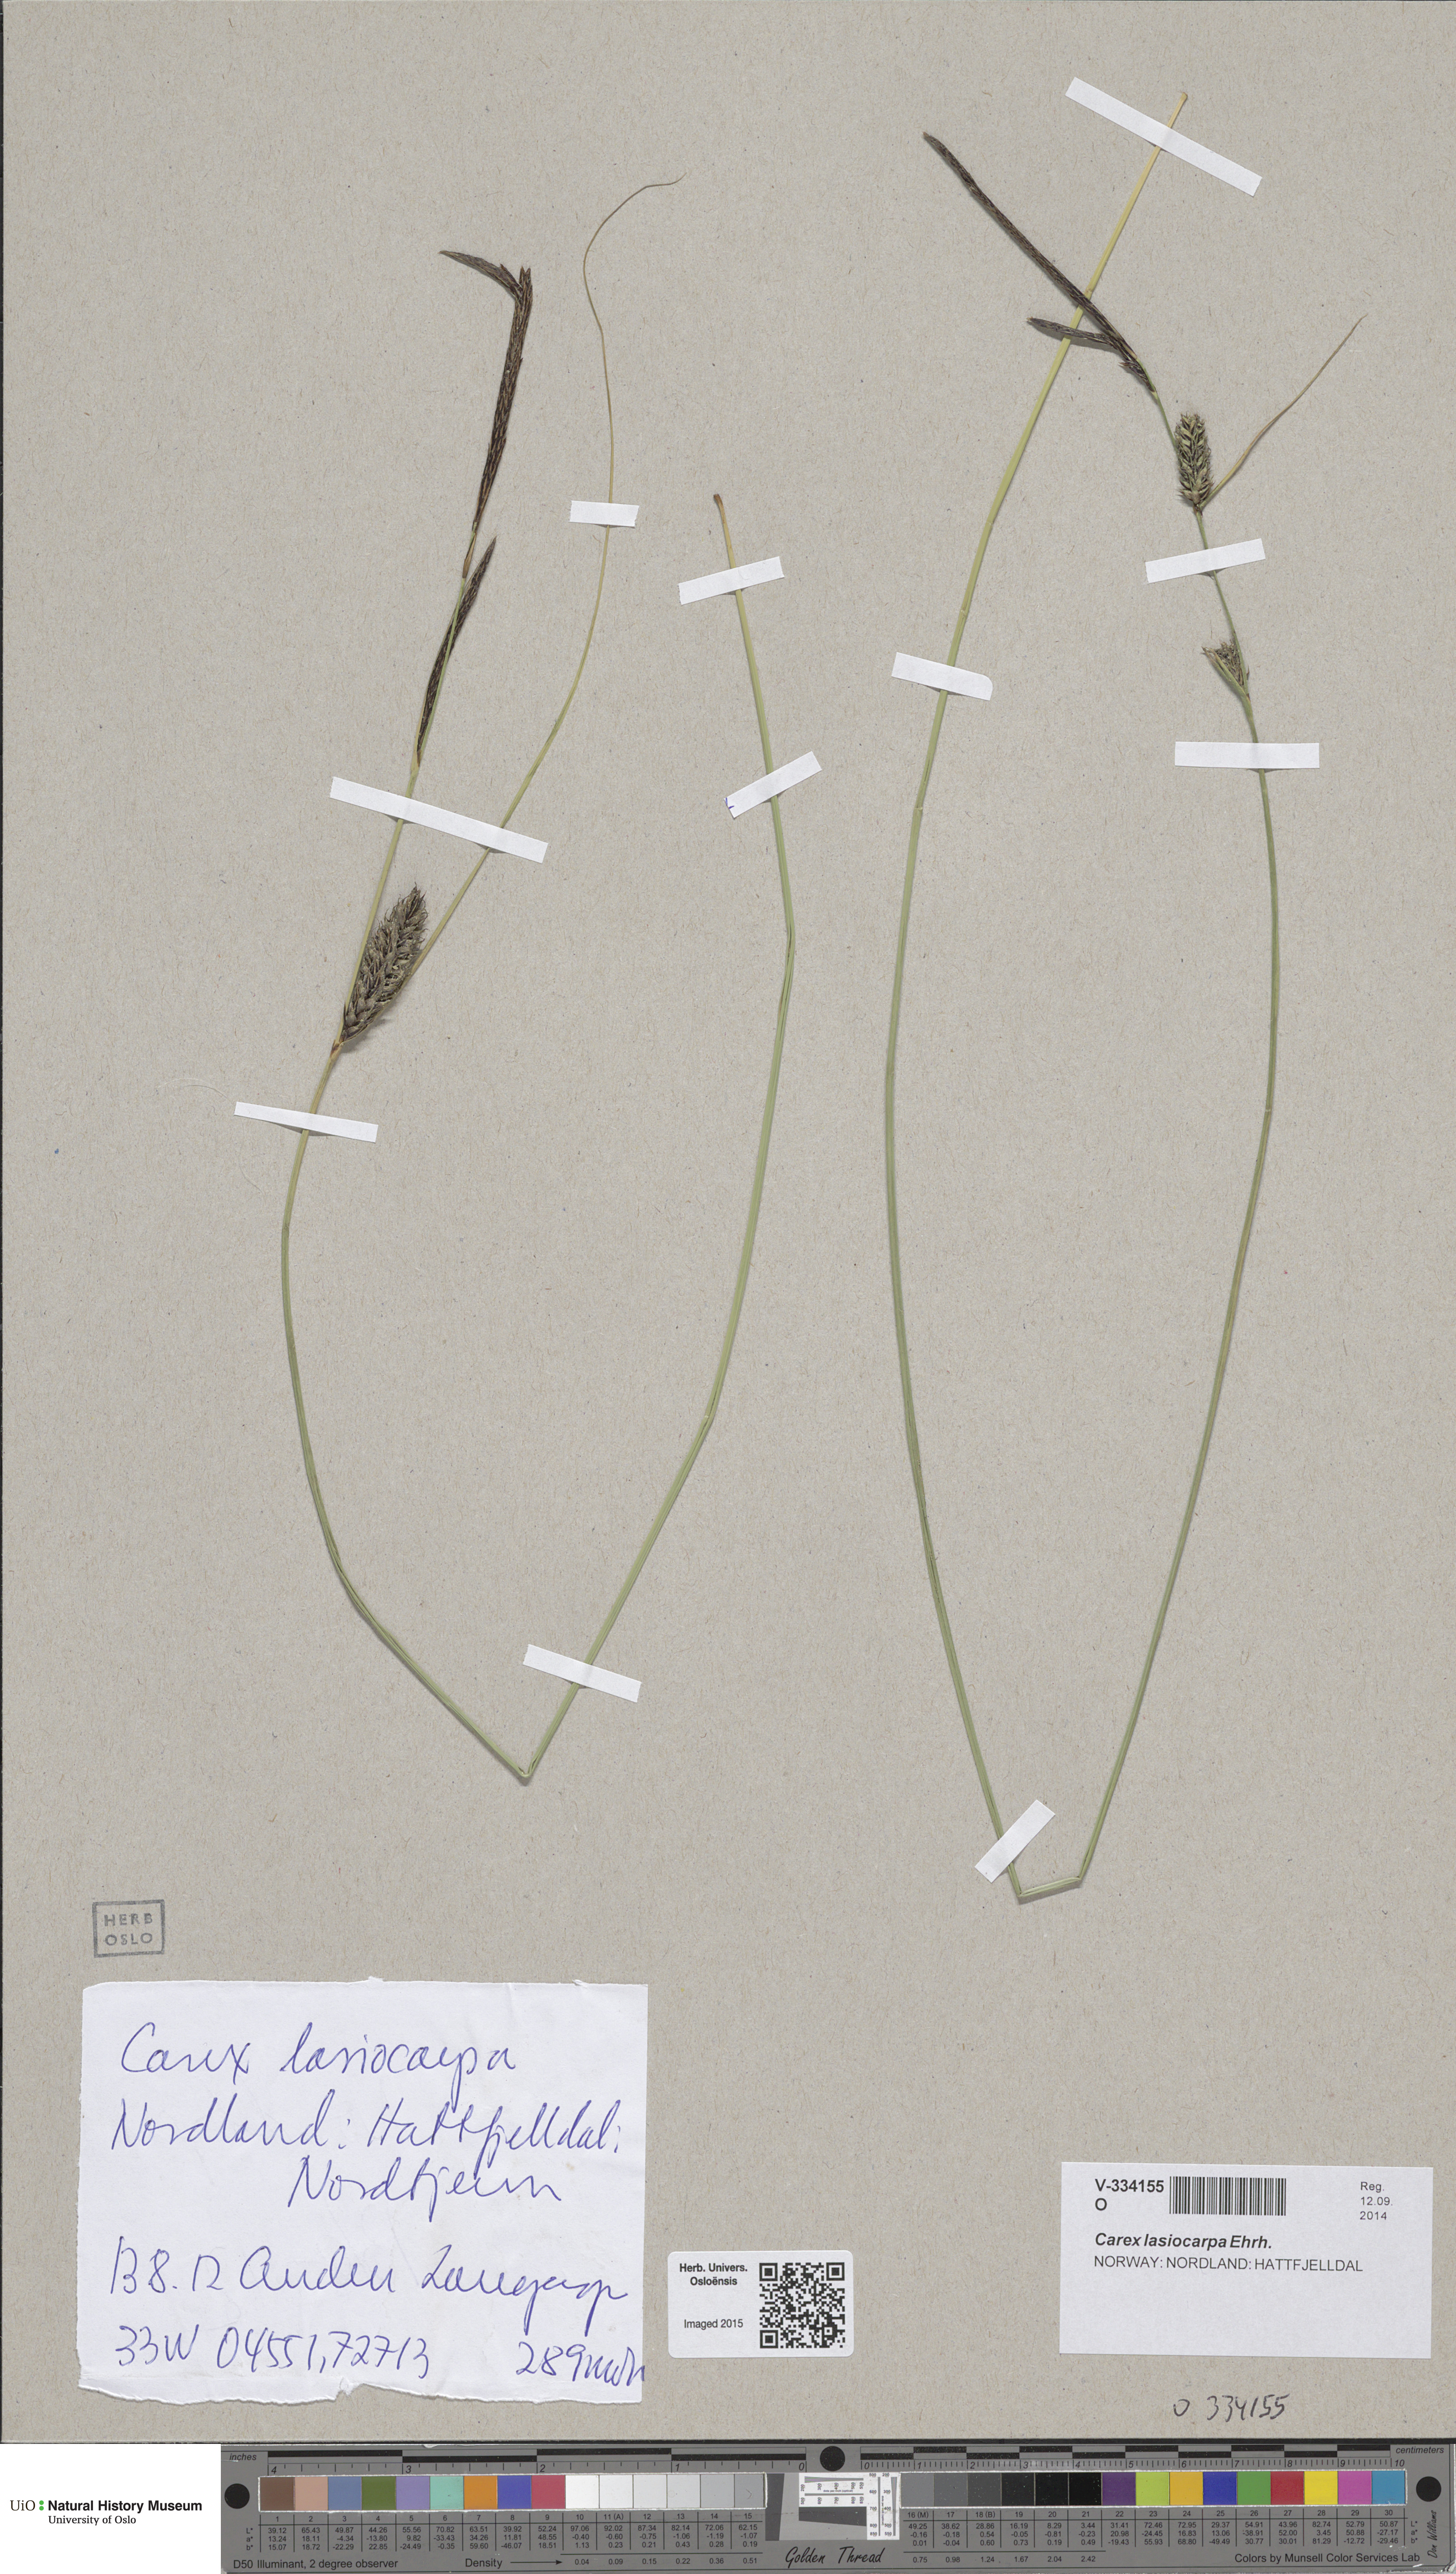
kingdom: Plantae
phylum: Tracheophyta
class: Liliopsida
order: Poales
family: Cyperaceae
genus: Carex
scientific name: Carex lasiocarpa
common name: Slender sedge
